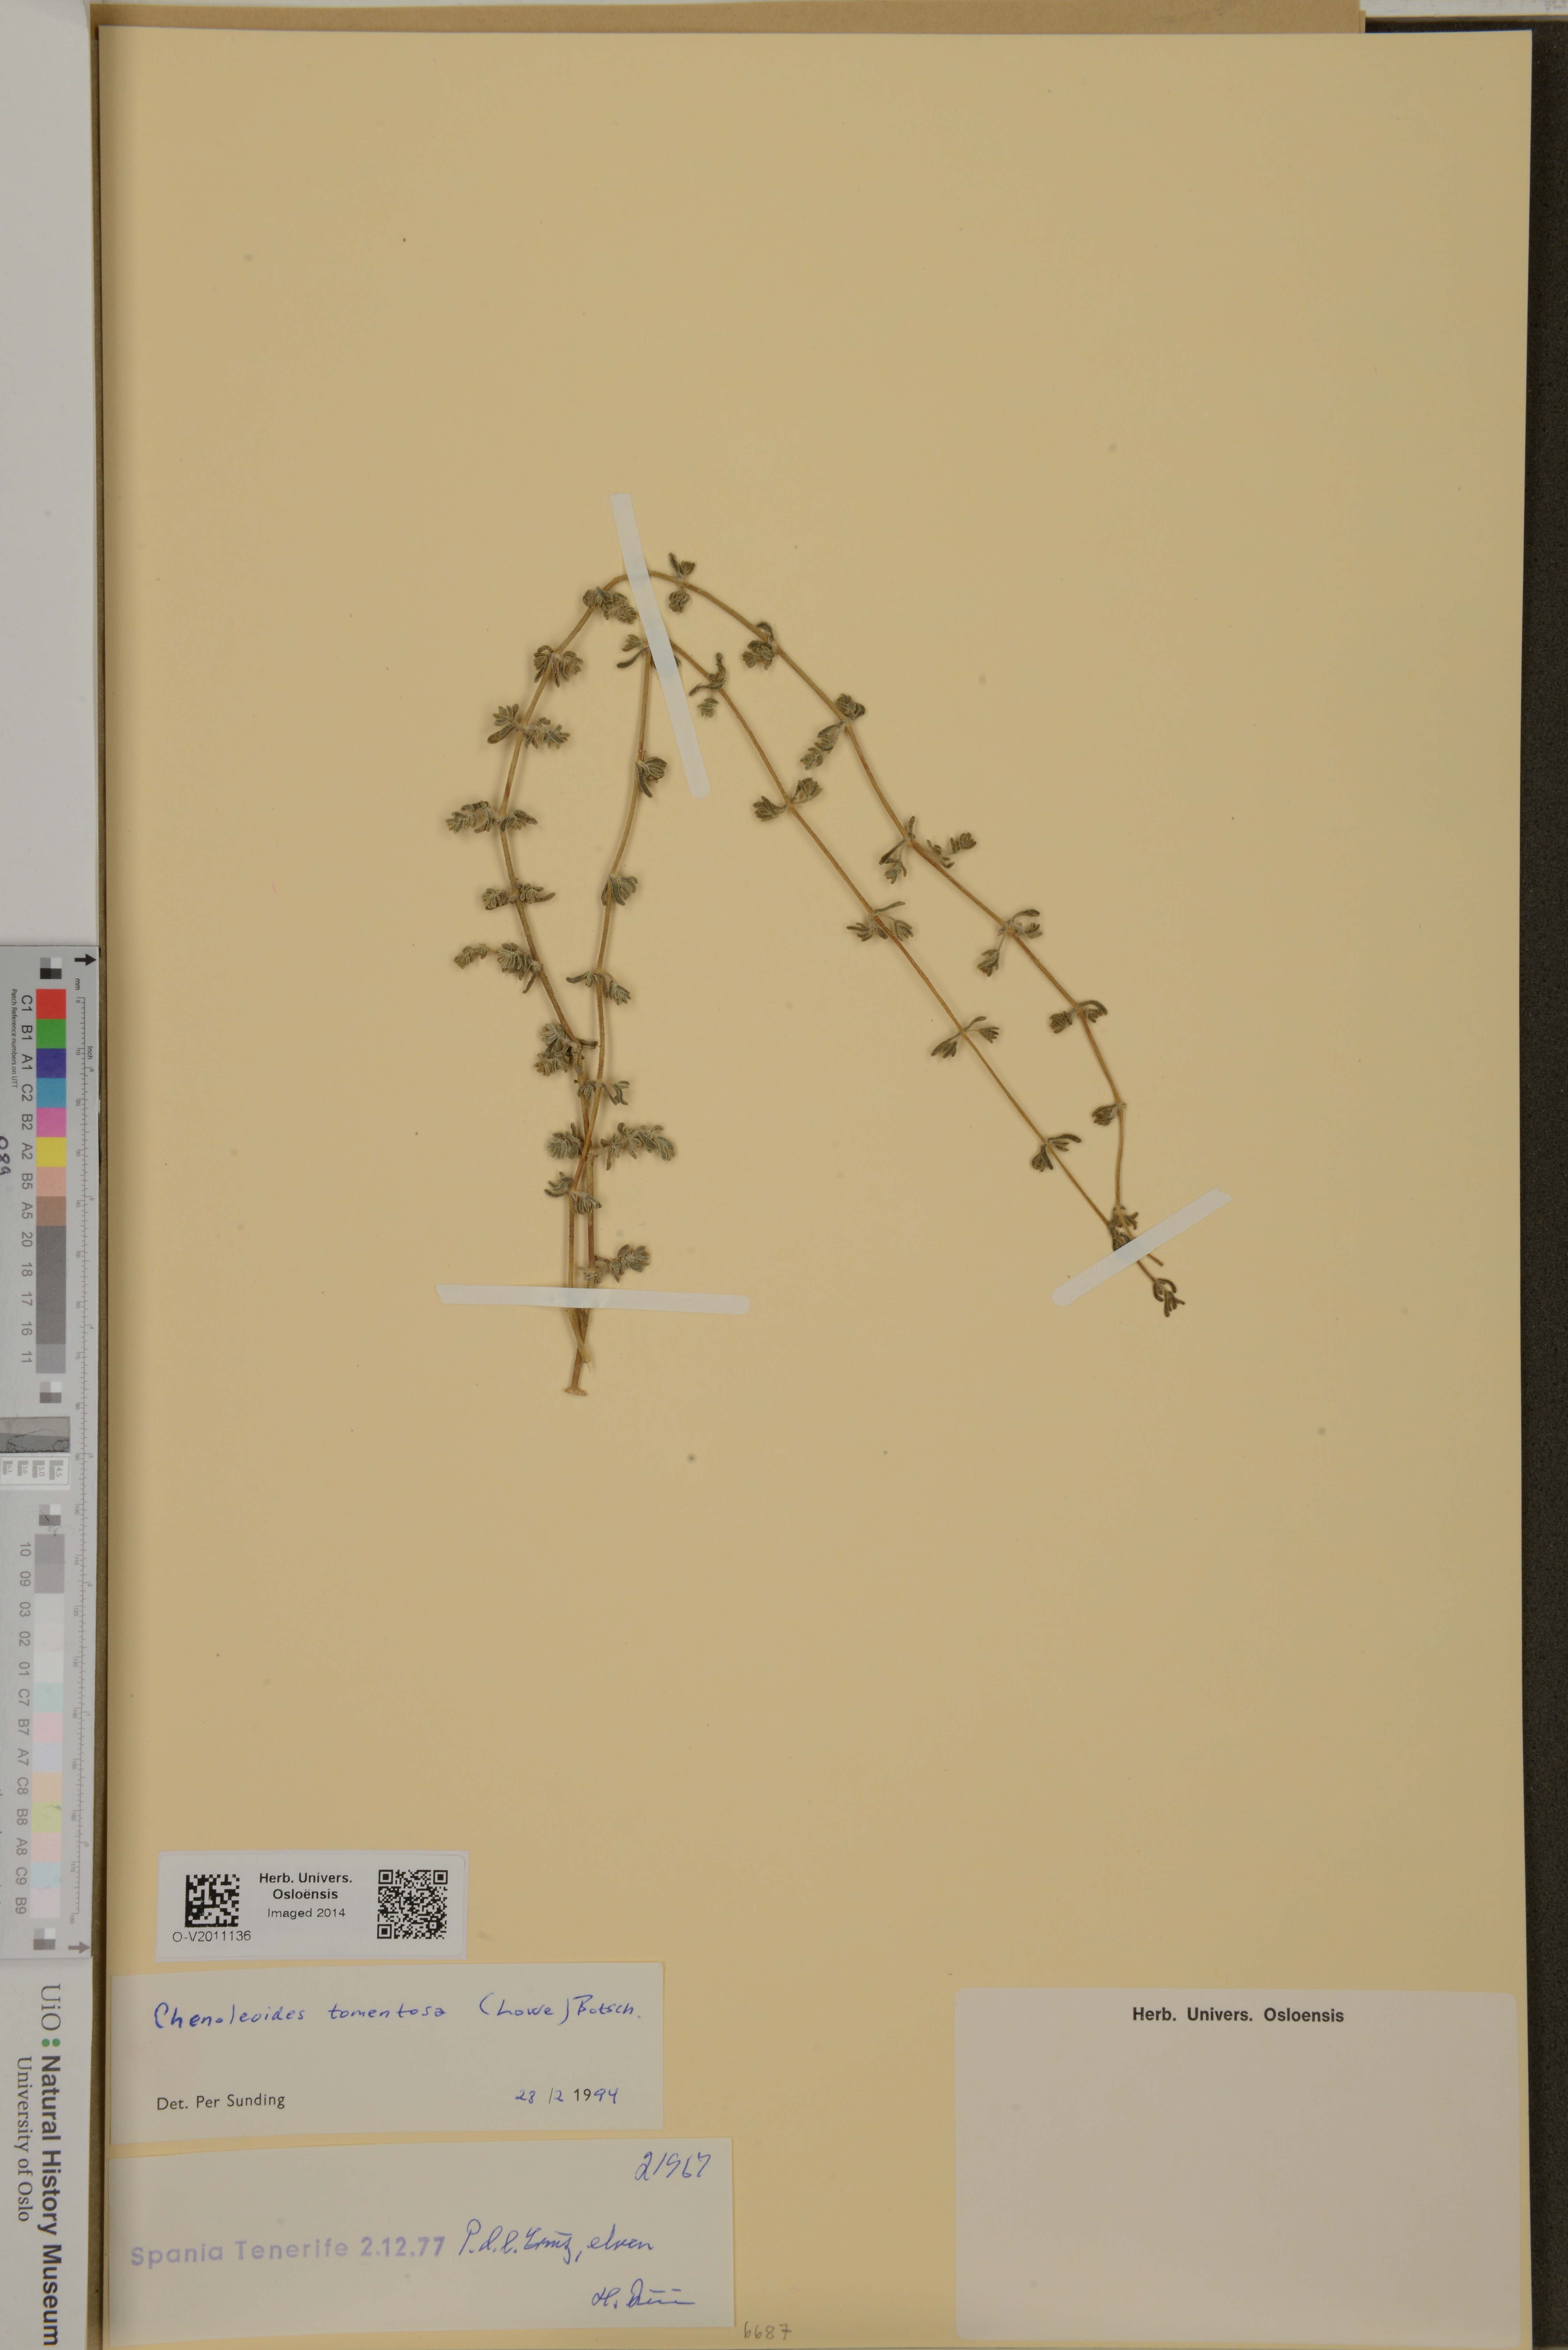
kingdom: Plantae
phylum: Tracheophyta
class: Magnoliopsida
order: Caryophyllales
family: Amaranthaceae
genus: Bassia
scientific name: Bassia tomentosa
